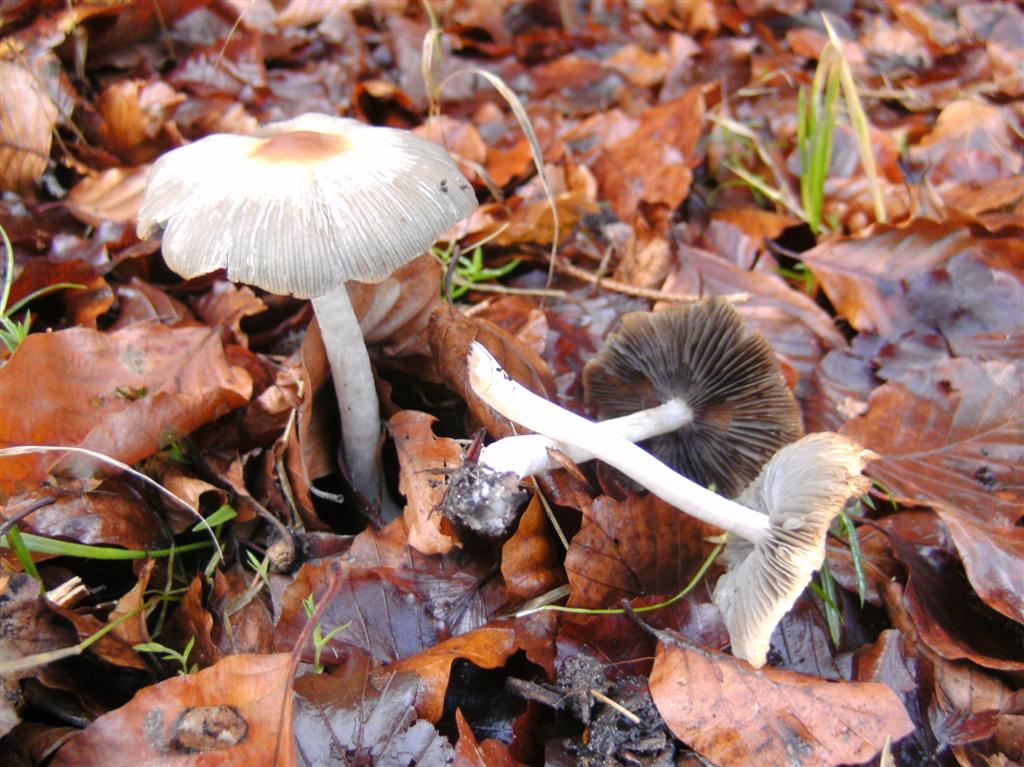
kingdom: Fungi
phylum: Basidiomycota
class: Agaricomycetes
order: Agaricales
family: Psathyrellaceae
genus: Psathyrella
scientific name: Psathyrella fusca
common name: gråbladet mørkhat
